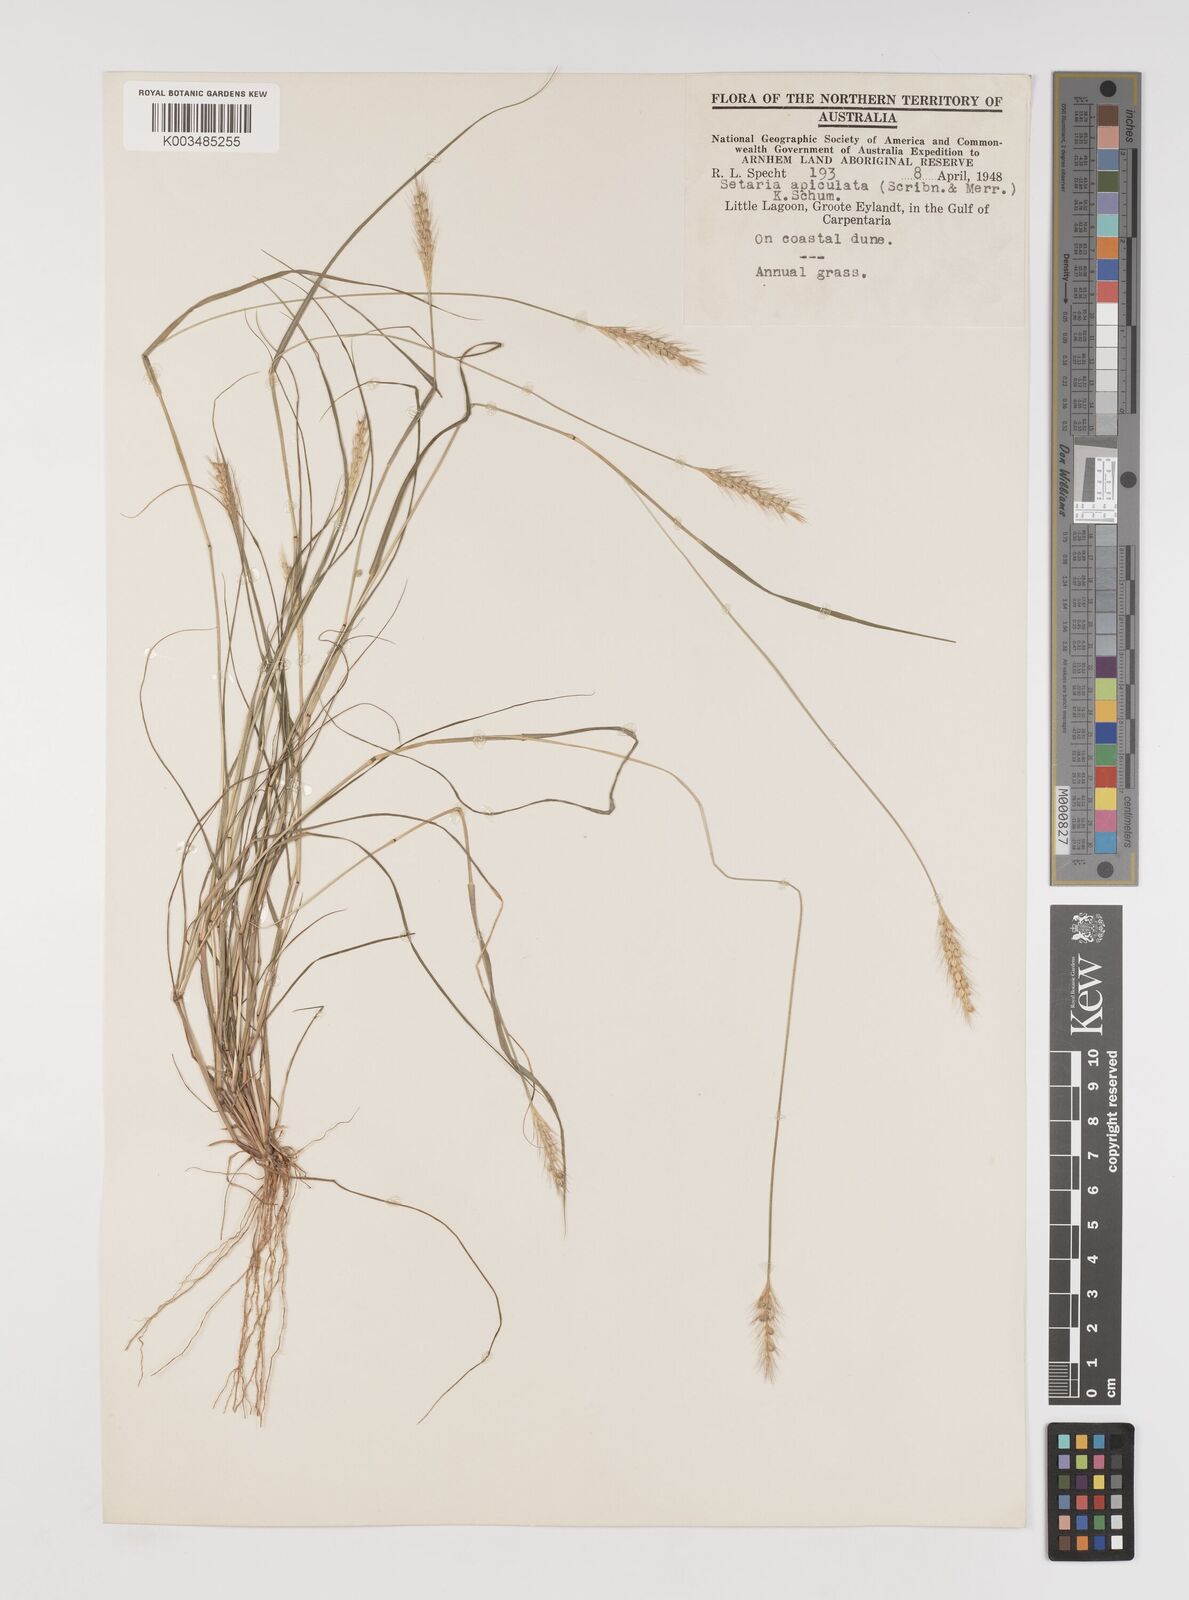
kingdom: Plantae
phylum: Tracheophyta
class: Liliopsida
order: Poales
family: Poaceae
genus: Setaria
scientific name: Setaria apiculata
